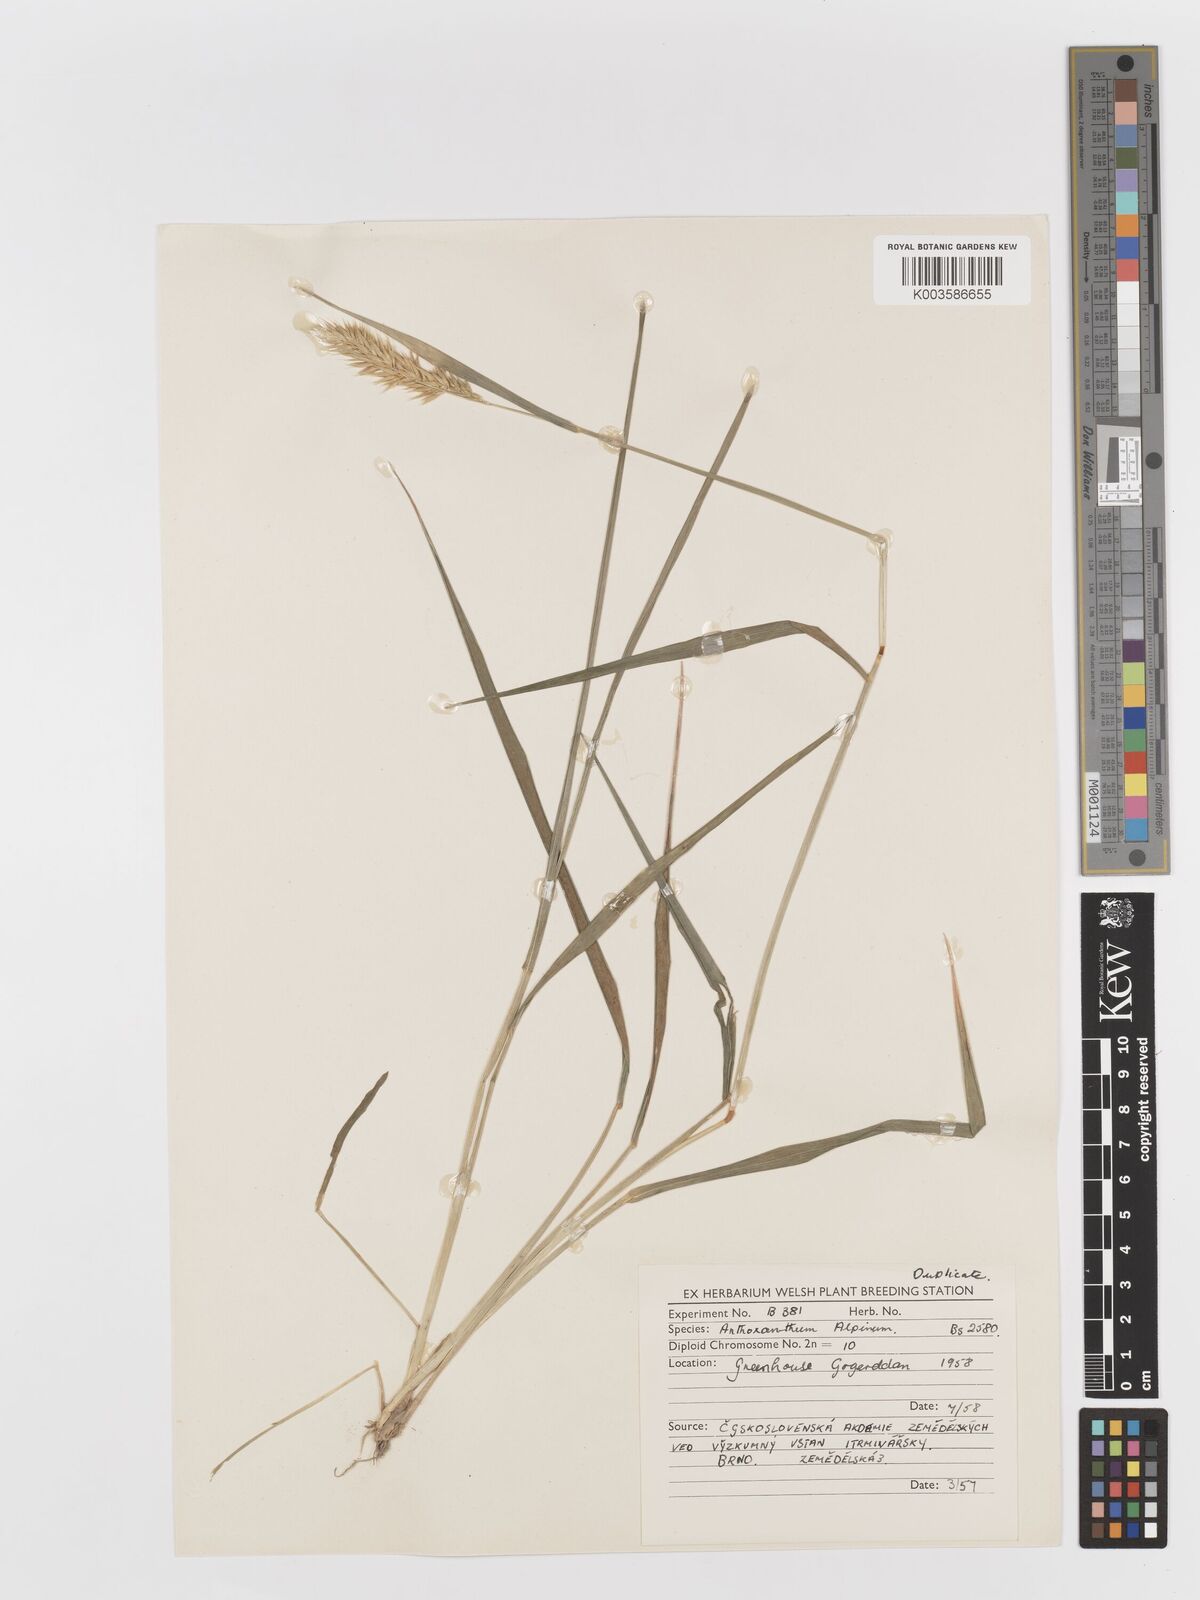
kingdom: Plantae
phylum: Tracheophyta
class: Liliopsida
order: Poales
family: Poaceae
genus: Anthoxanthum
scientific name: Anthoxanthum odoratum
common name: Sweet vernalgrass
